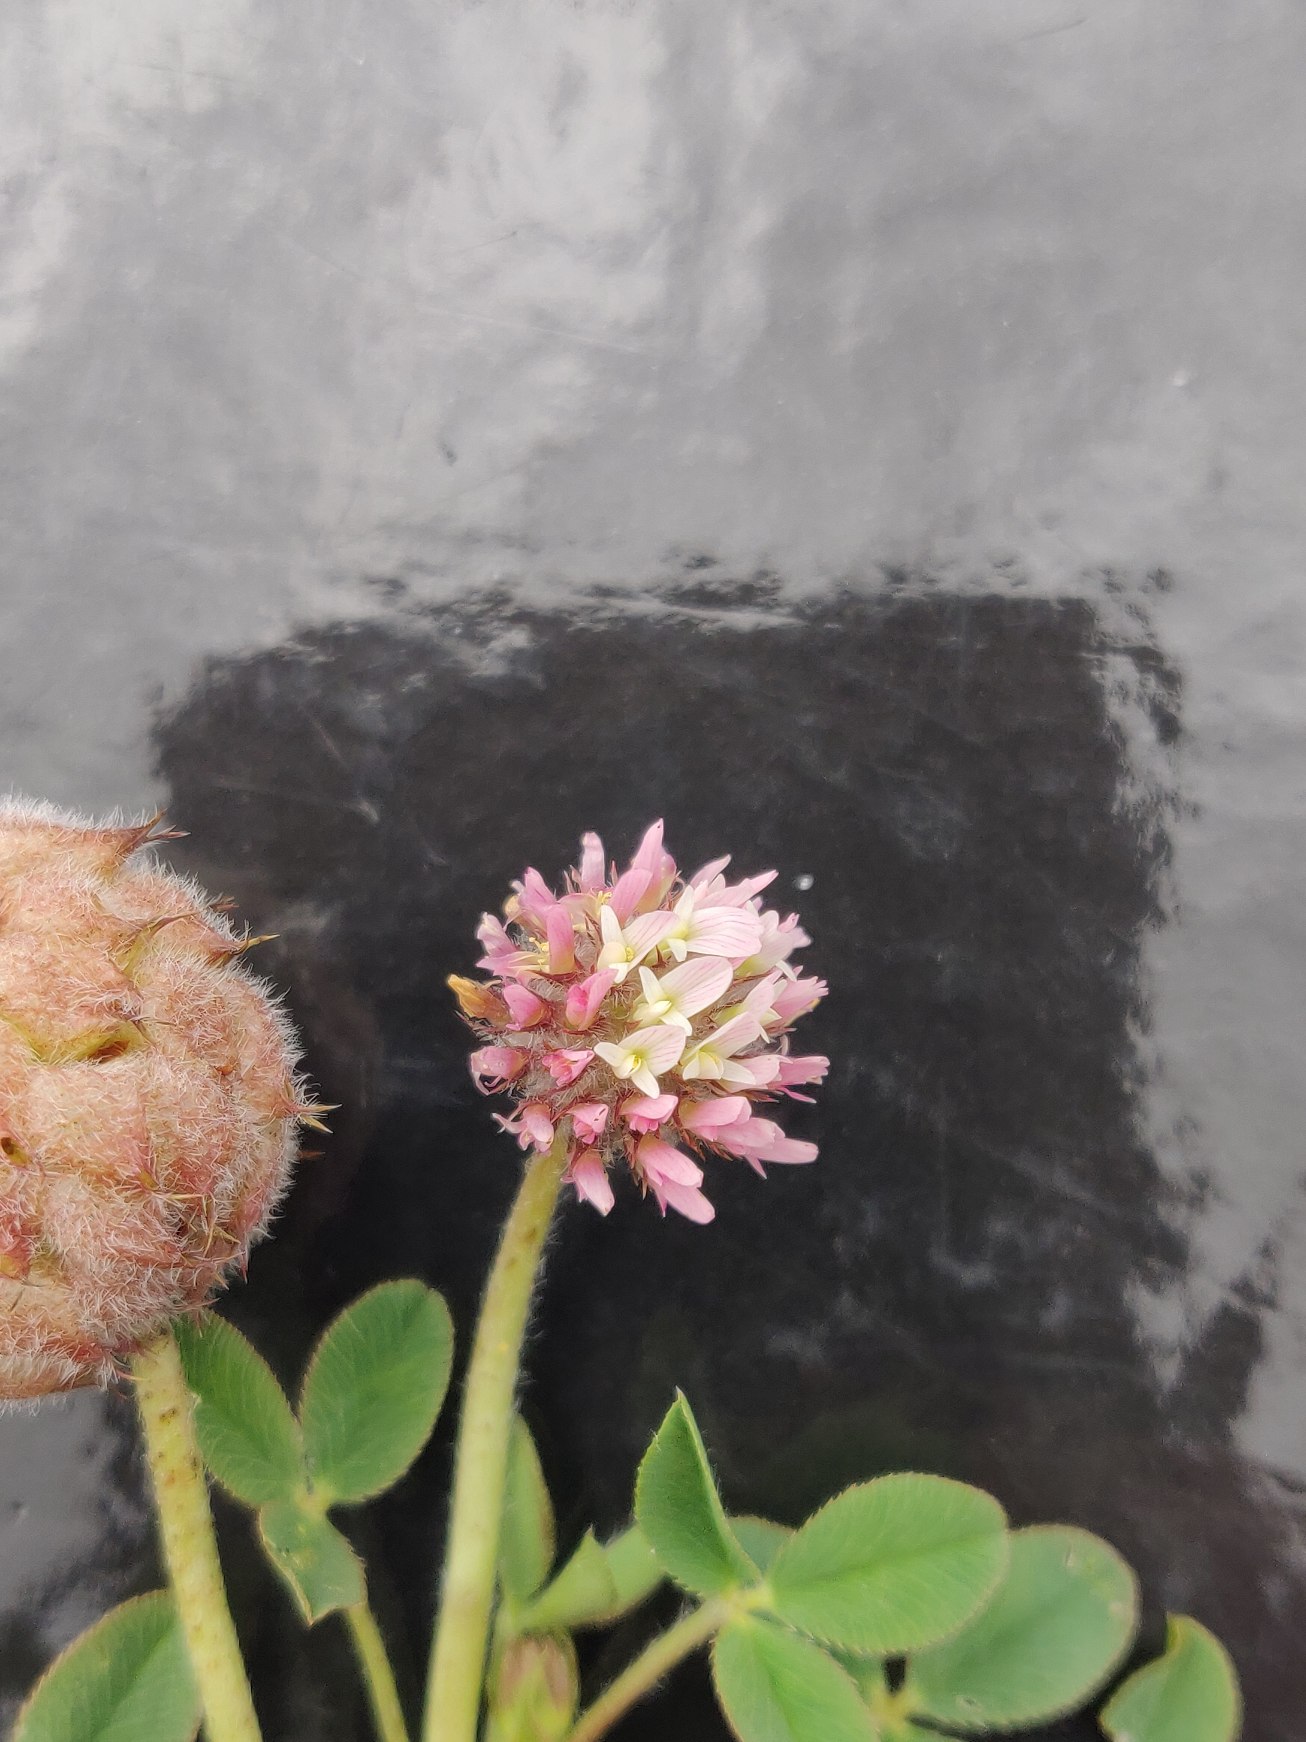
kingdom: Plantae
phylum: Tracheophyta
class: Magnoliopsida
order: Fabales
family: Fabaceae
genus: Trifolium
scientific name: Trifolium fragiferum
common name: Jordbær-kløver
